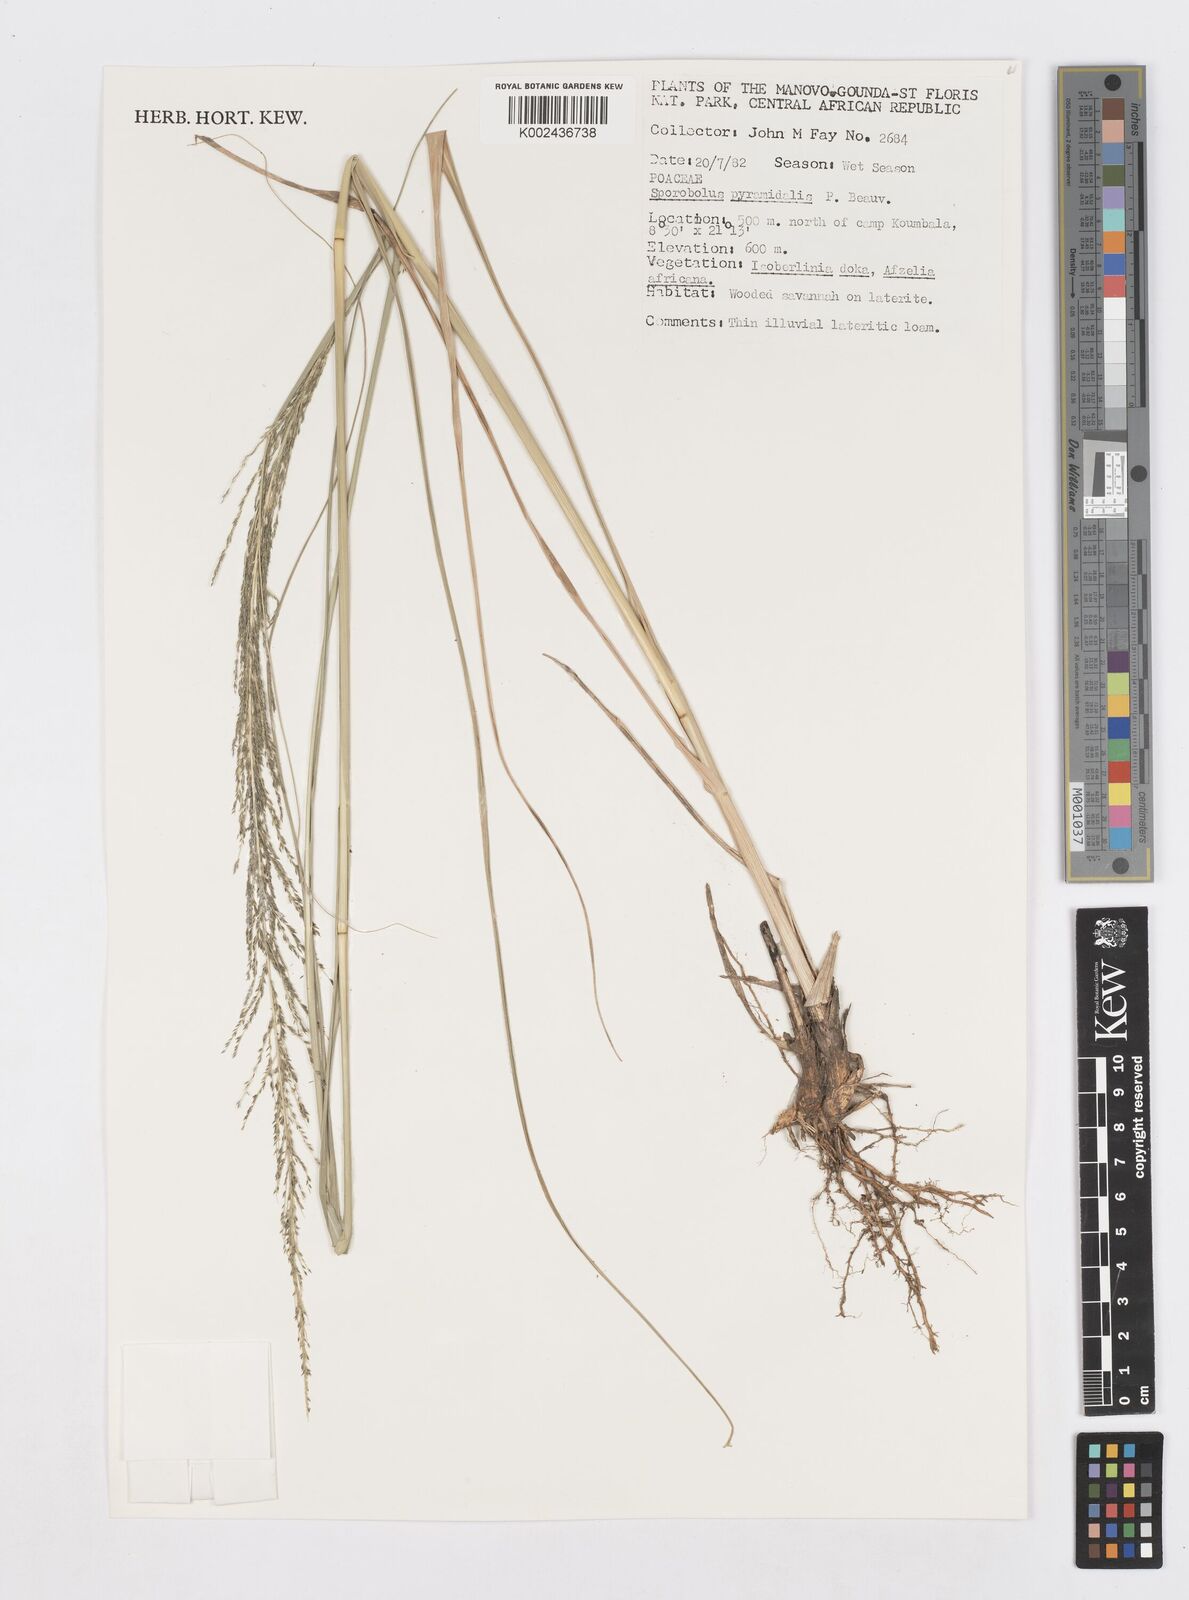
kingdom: Plantae
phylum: Tracheophyta
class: Liliopsida
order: Poales
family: Poaceae
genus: Sporobolus
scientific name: Sporobolus pyramidalis
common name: West indian dropseed
